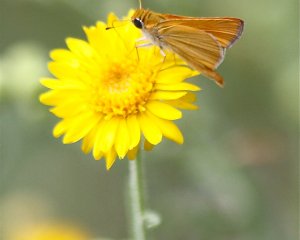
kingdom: Animalia
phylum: Arthropoda
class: Insecta
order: Lepidoptera
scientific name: Lepidoptera
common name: Butterflies
